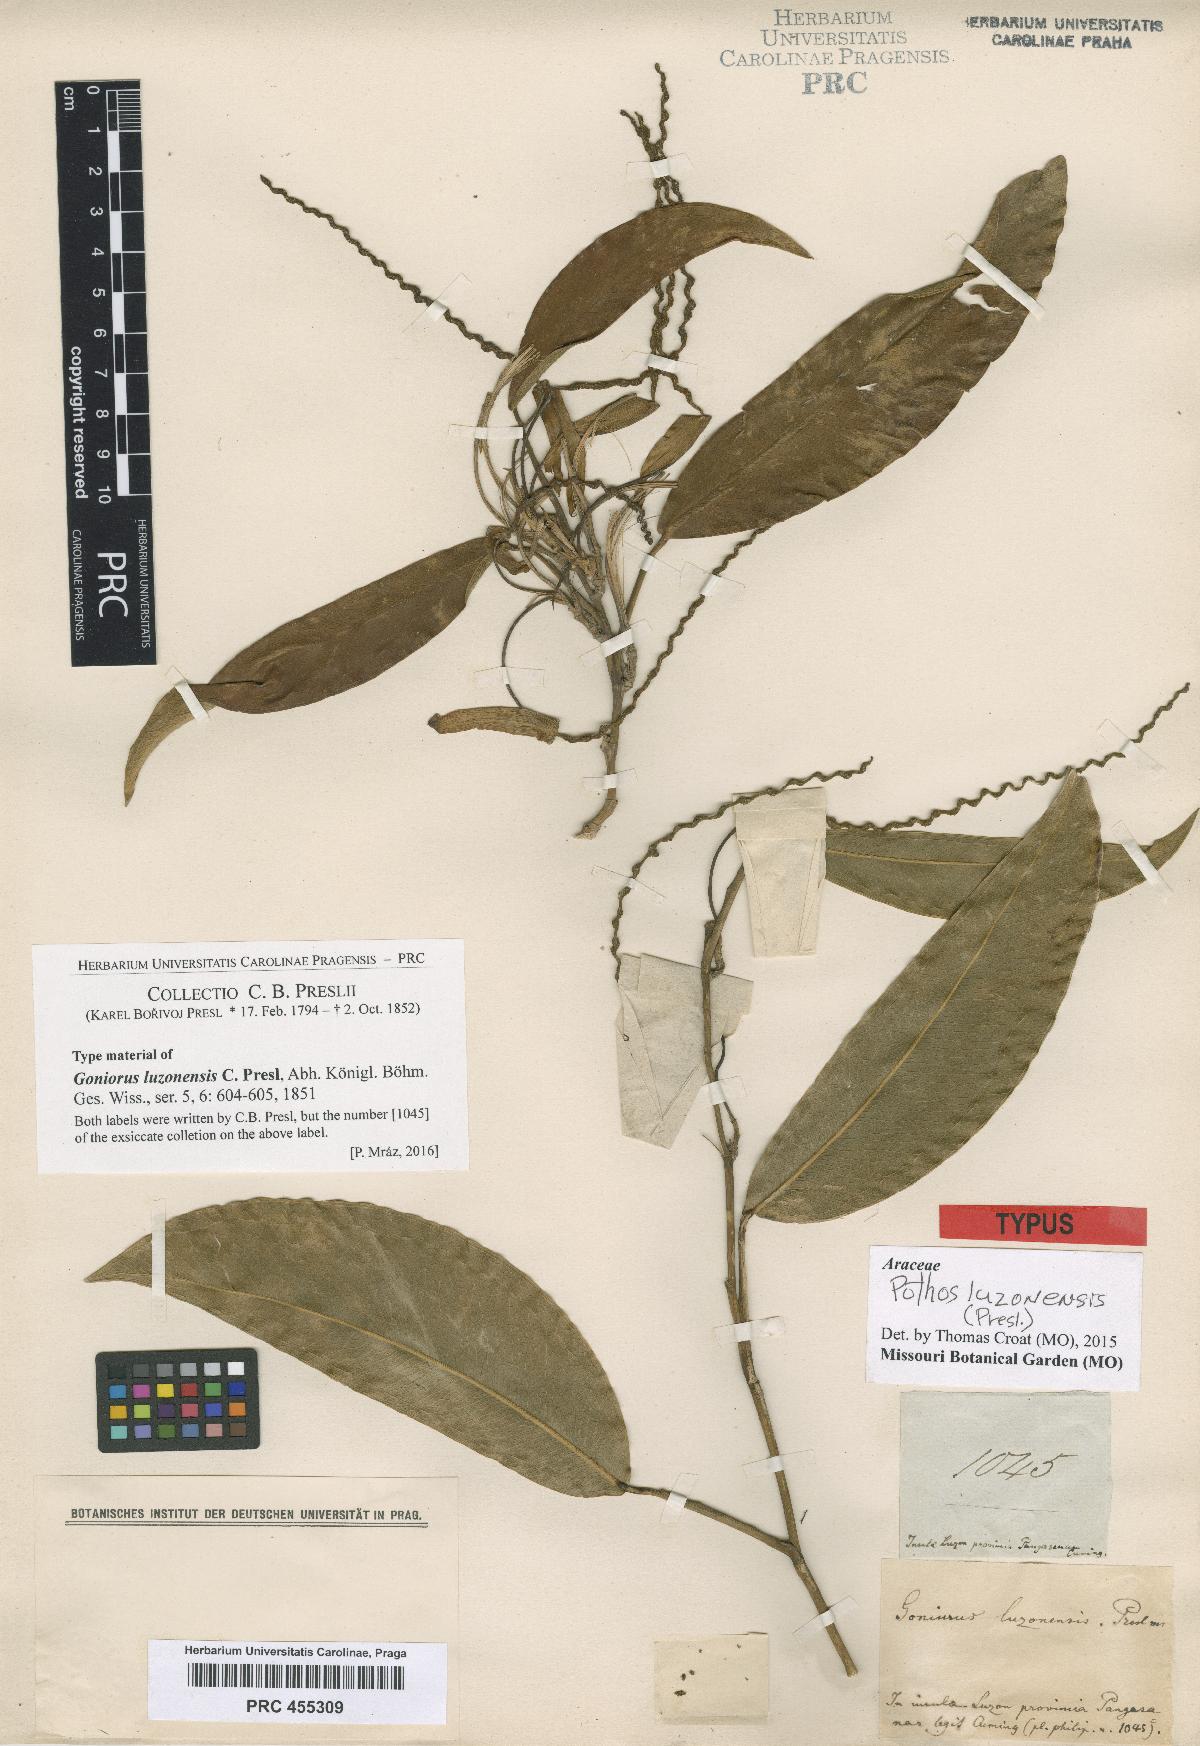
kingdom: Plantae
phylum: Tracheophyta
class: Liliopsida
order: Alismatales
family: Araceae
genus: Pothos
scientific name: Pothos luzonensis
